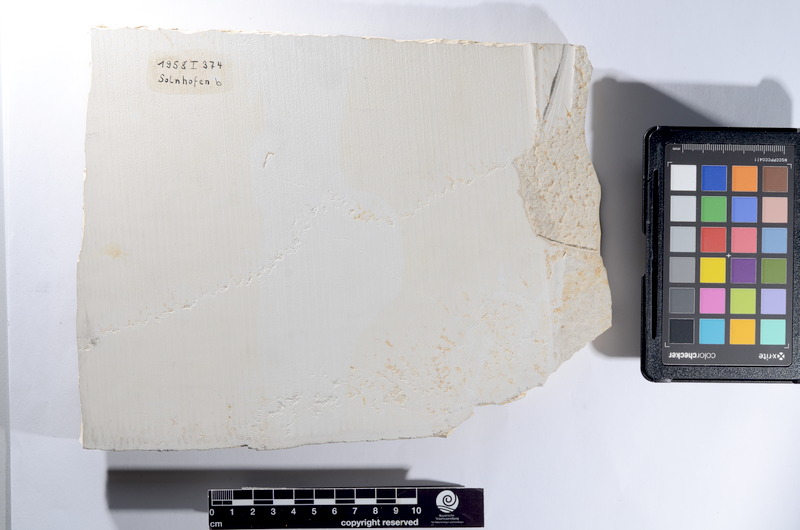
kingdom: Animalia
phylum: Chordata
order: Amiiformes
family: Caturidae
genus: Caturus
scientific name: Caturus
